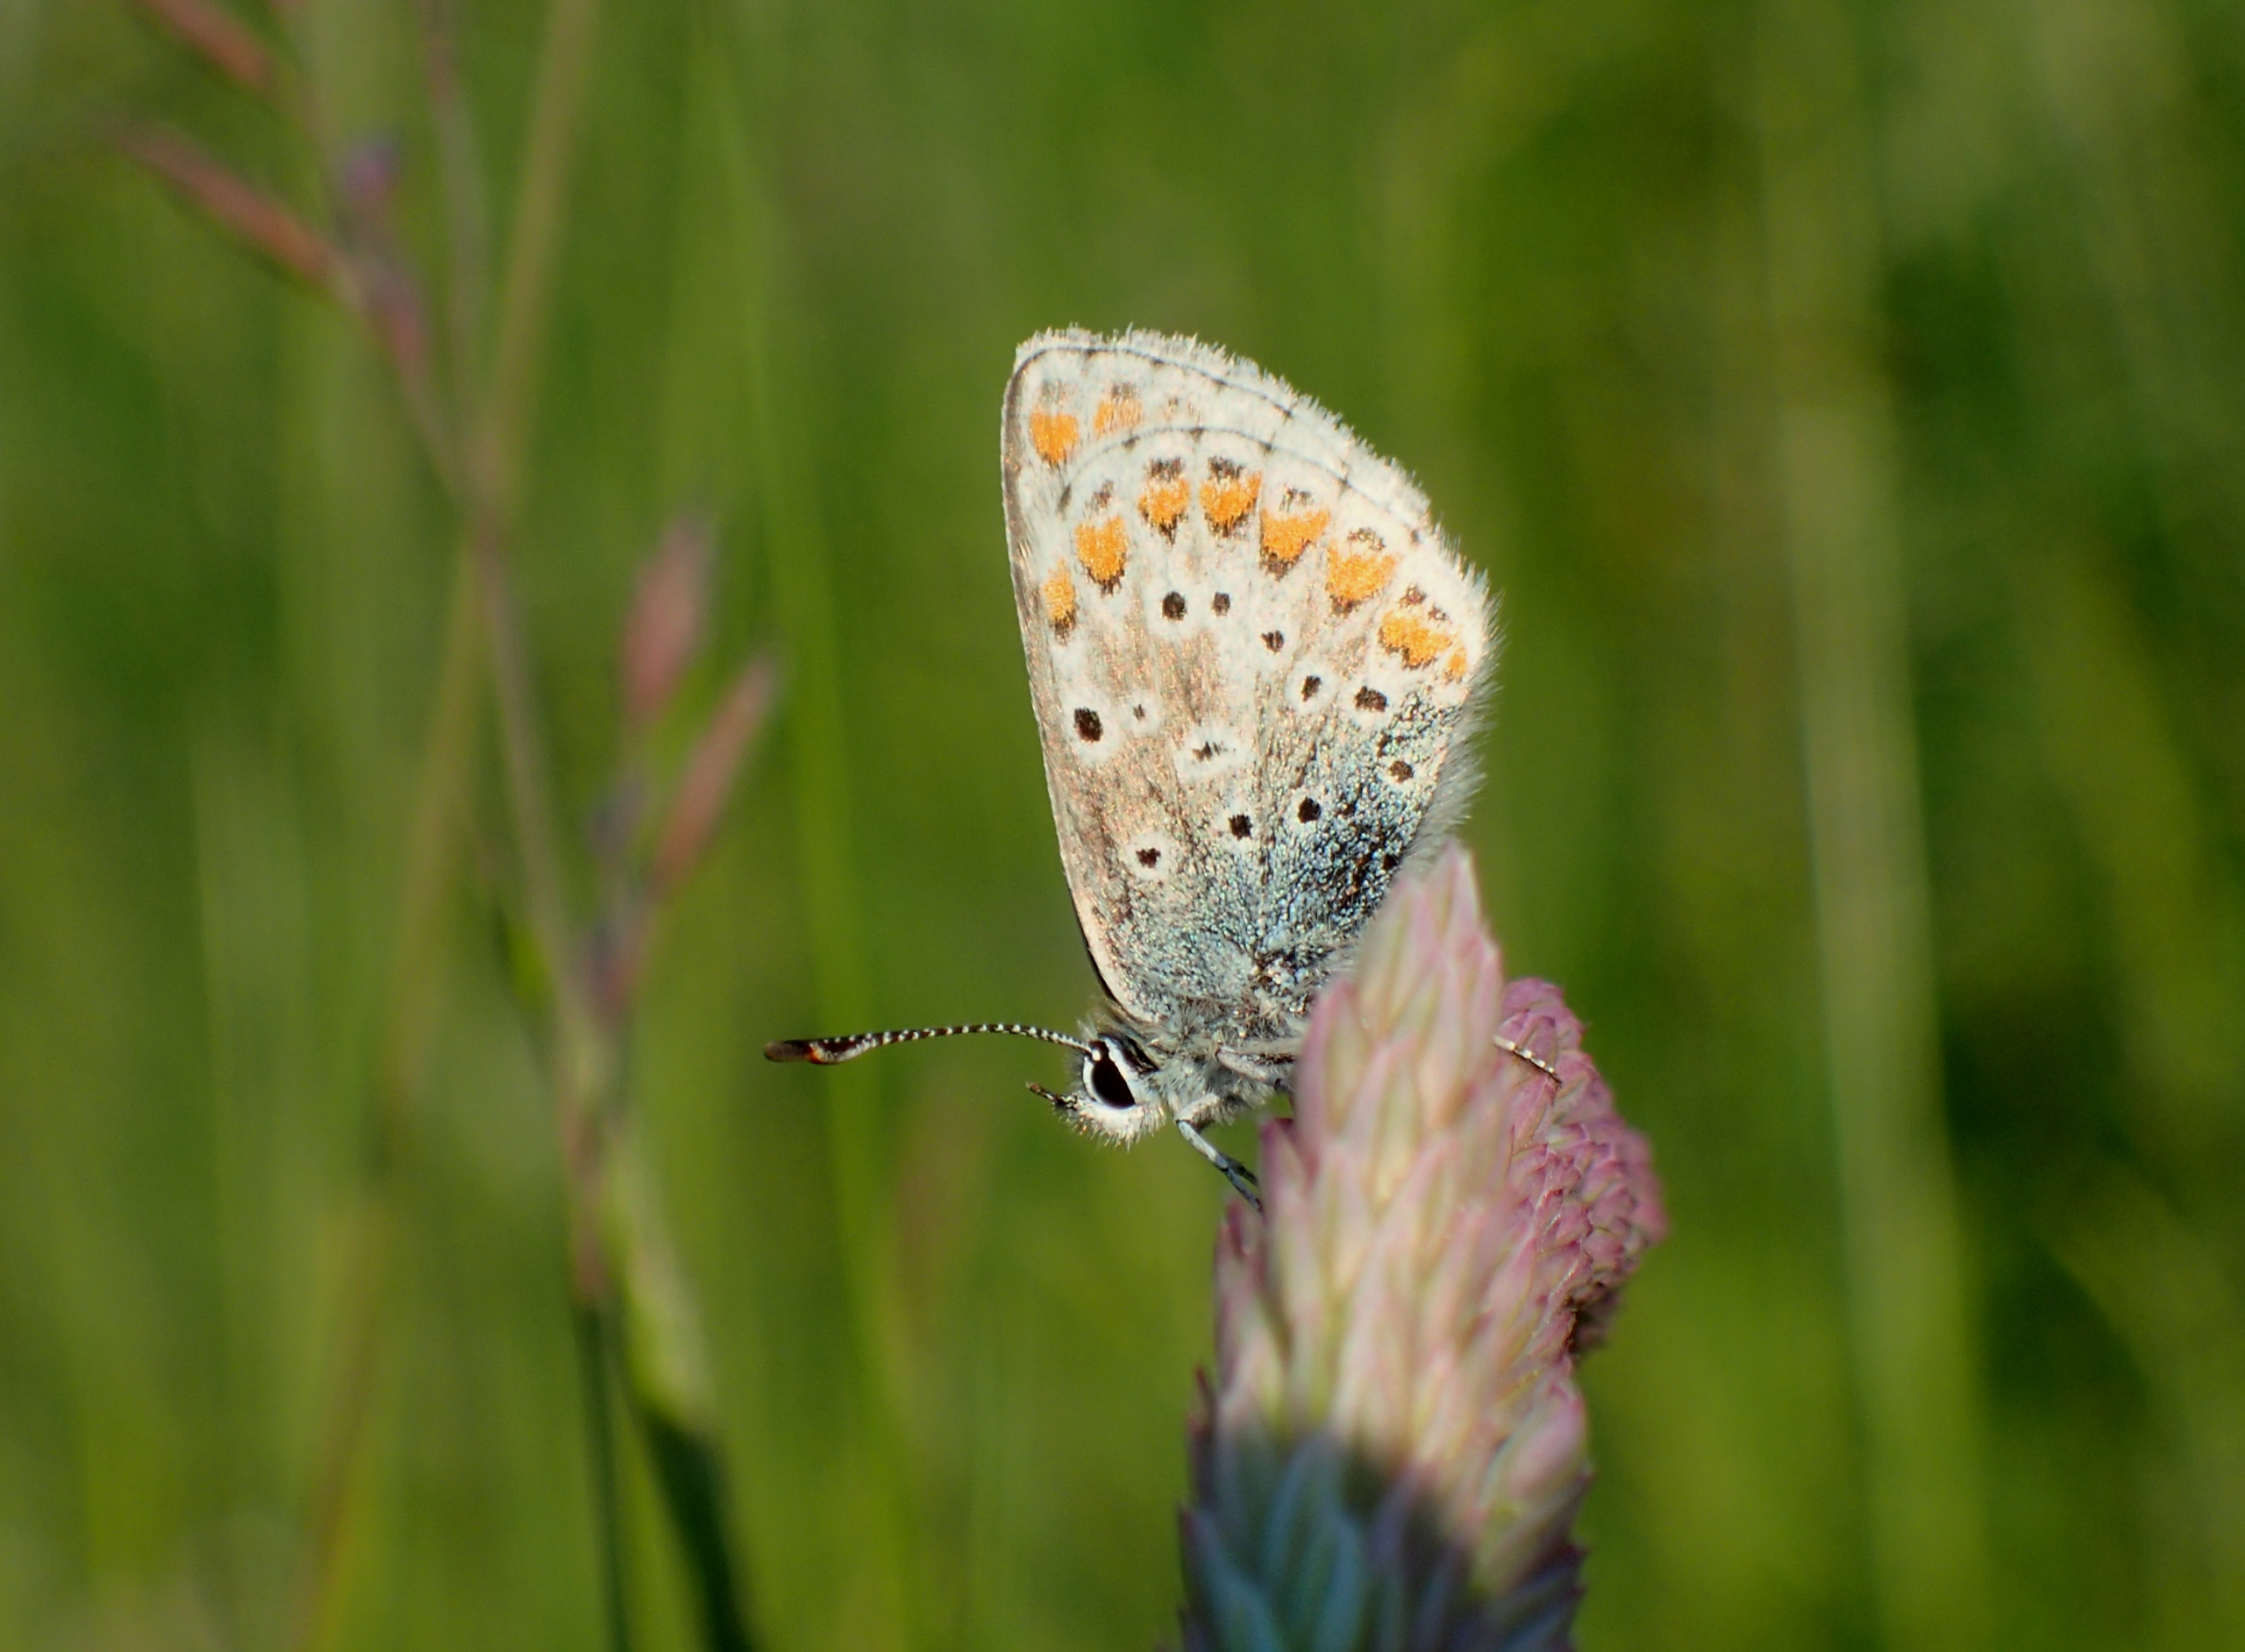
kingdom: Animalia
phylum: Arthropoda
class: Insecta
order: Lepidoptera
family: Lycaenidae
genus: Aricia
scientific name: Aricia agestis
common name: Rødplettet blåfugl
